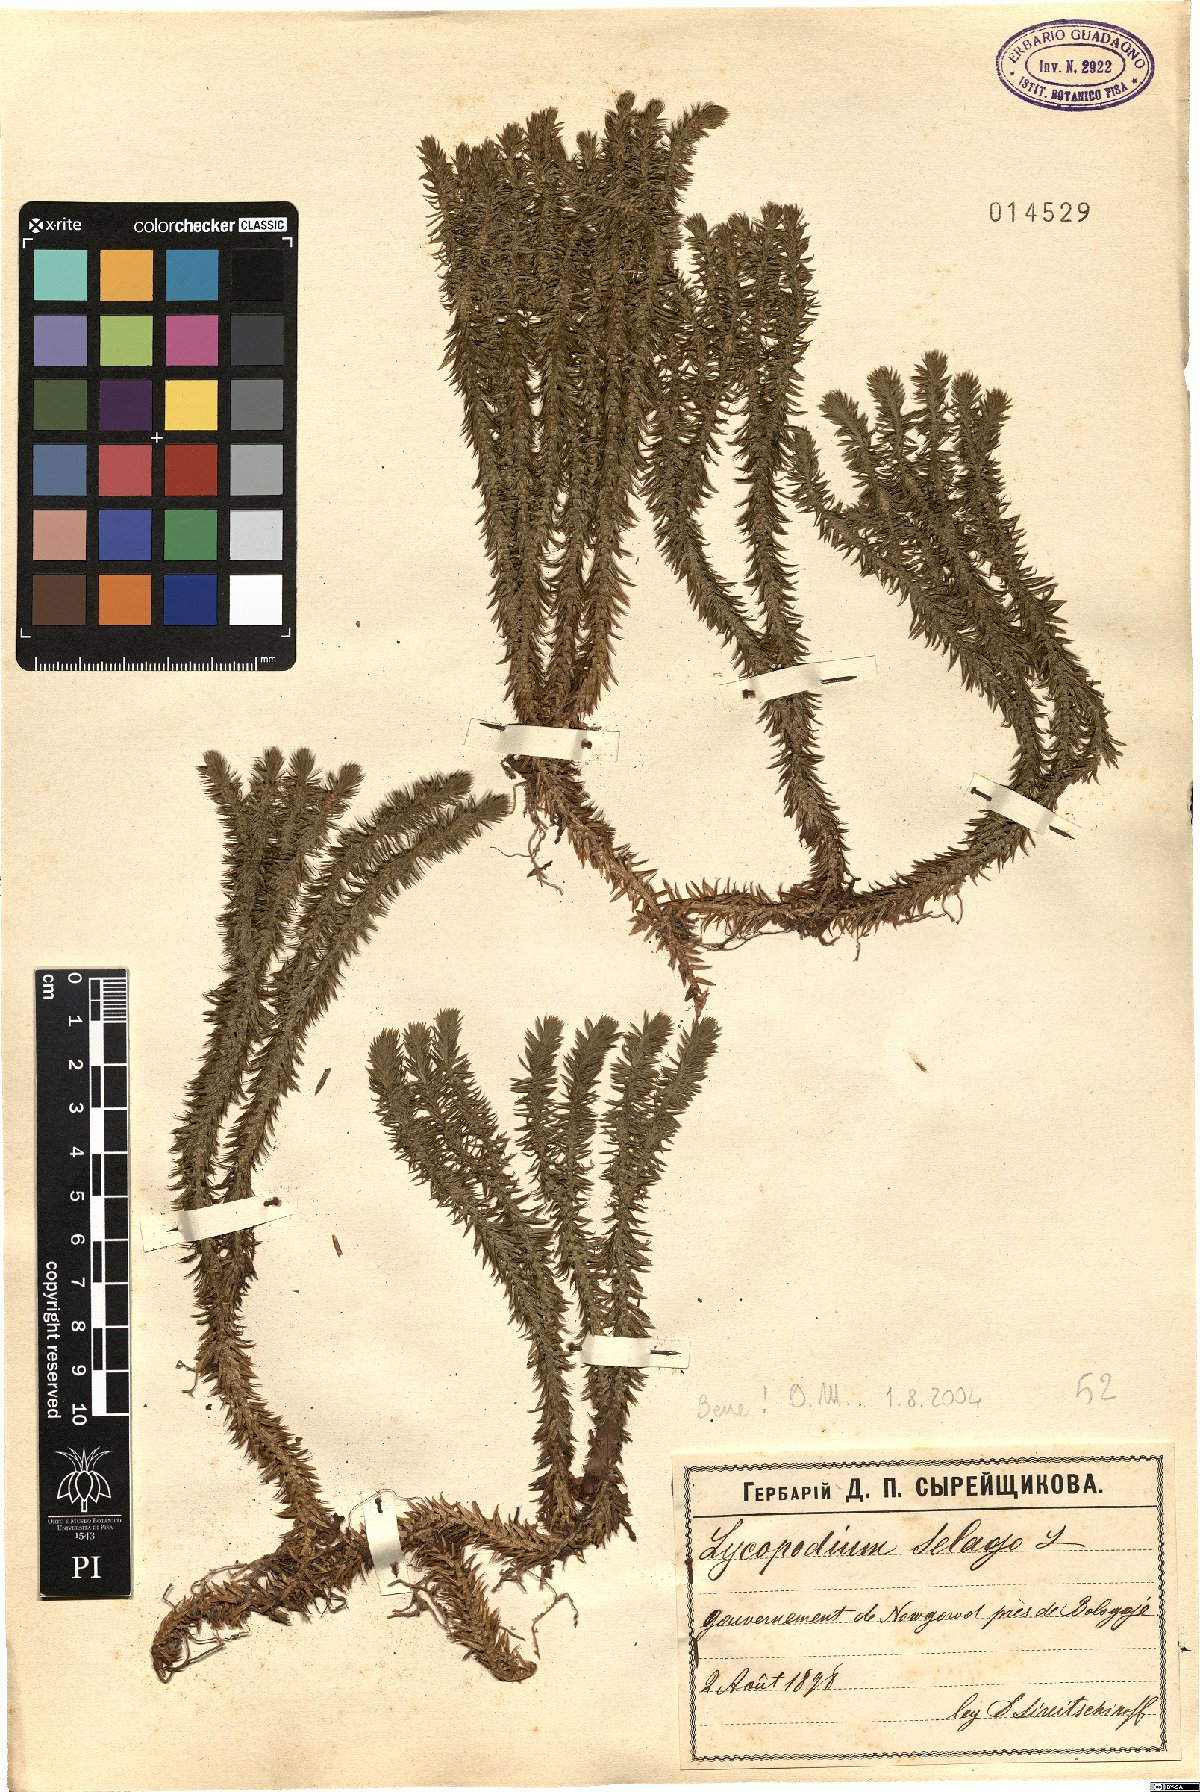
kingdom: Plantae
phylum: Tracheophyta
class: Lycopodiopsida
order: Lycopodiales
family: Lycopodiaceae
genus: Huperzia
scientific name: Huperzia selago
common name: Northern firmoss
